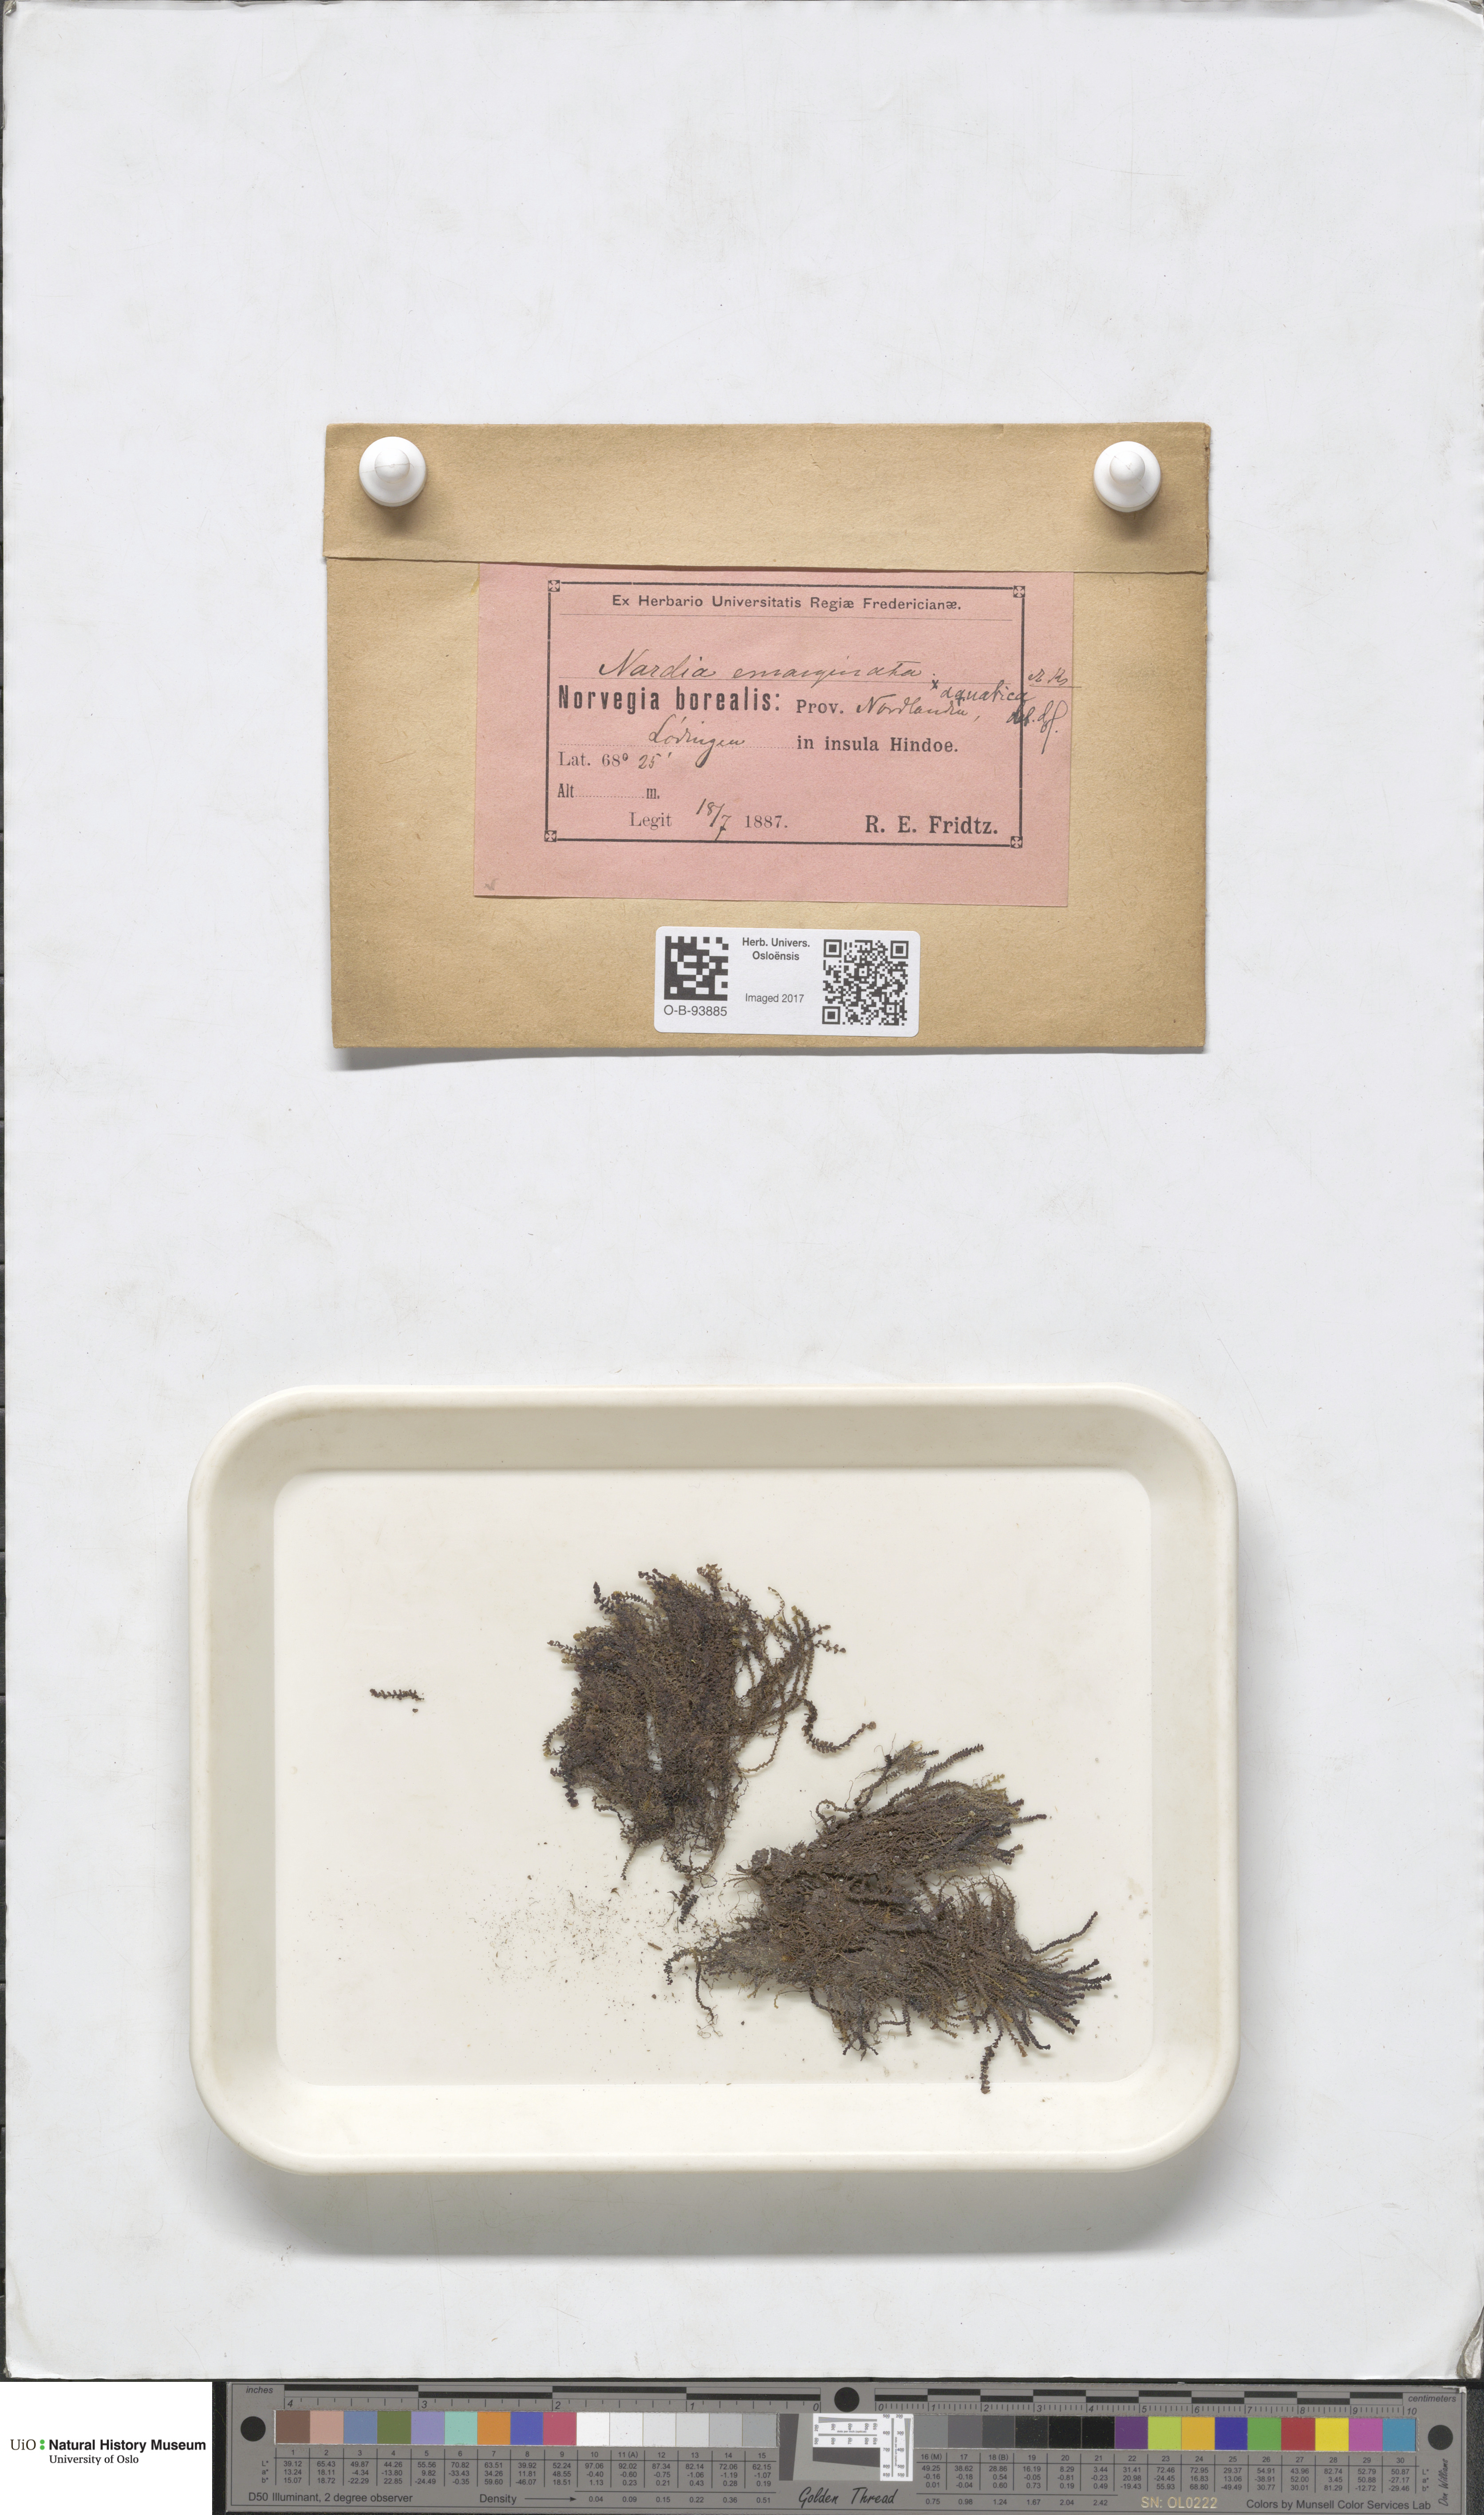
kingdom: Plantae
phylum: Marchantiophyta
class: Jungermanniopsida
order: Jungermanniales
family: Gymnomitriaceae
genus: Marsupella
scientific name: Marsupella emarginata
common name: Notched rustwort
